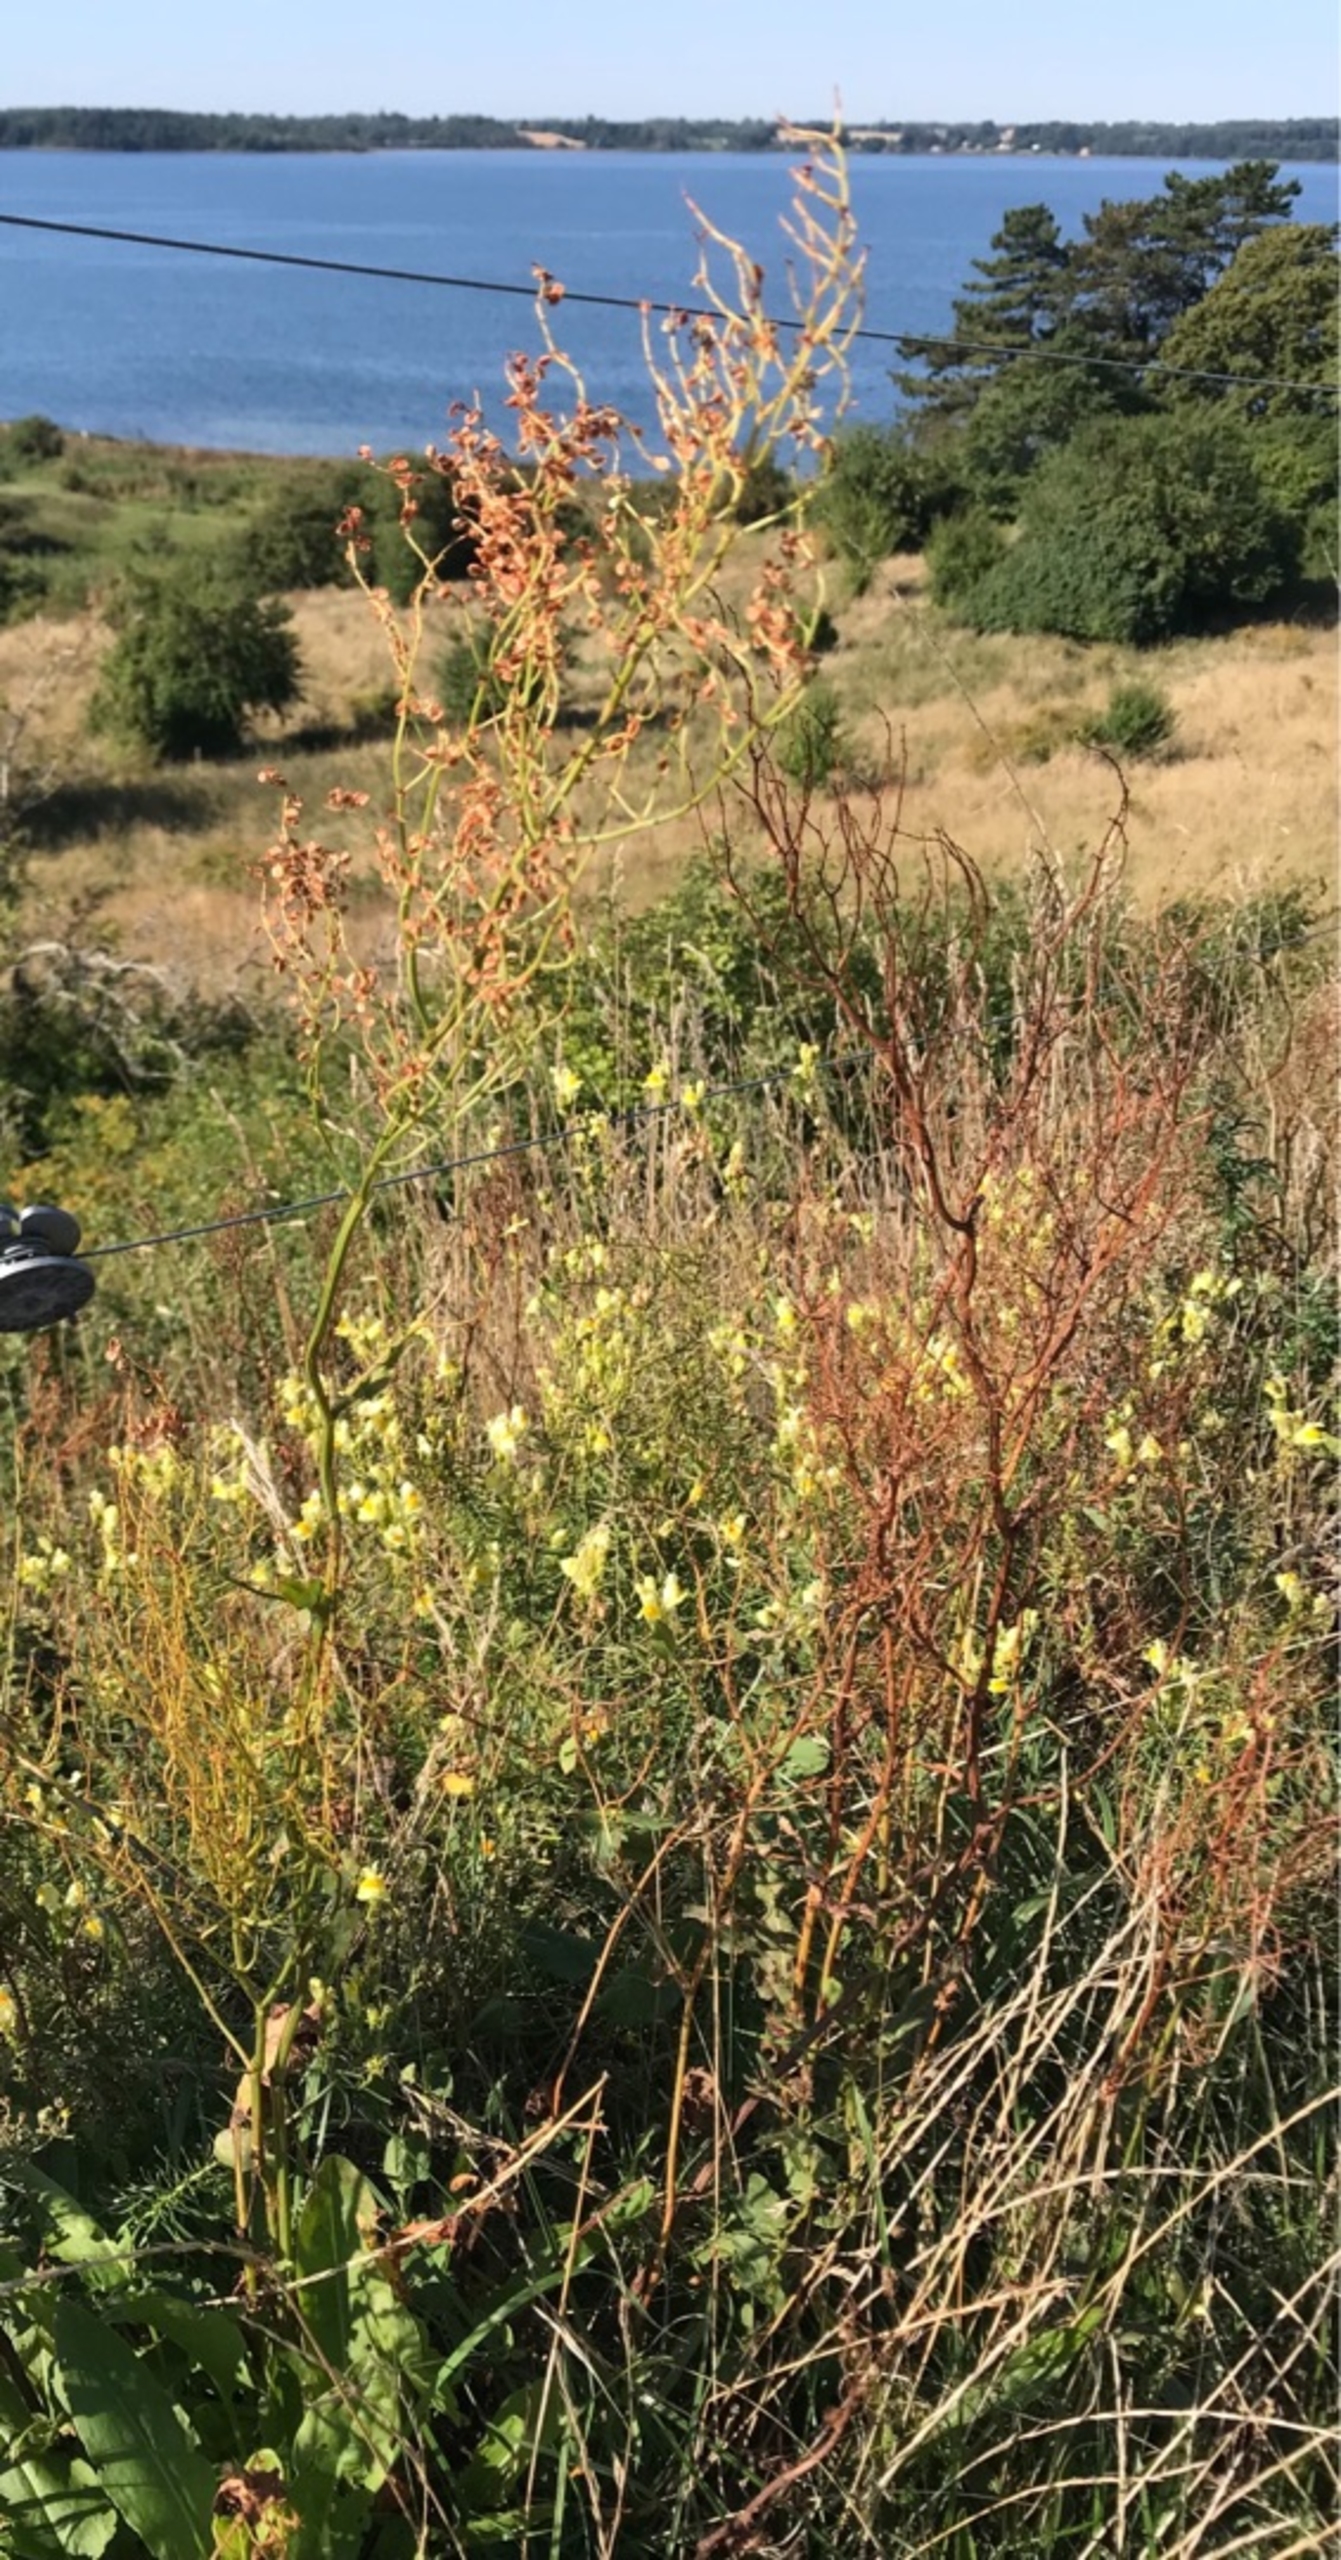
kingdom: Plantae
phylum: Tracheophyta
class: Magnoliopsida
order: Caryophyllales
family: Polygonaceae
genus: Rumex
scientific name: Rumex thyrsiflorus
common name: Dusk-syre
